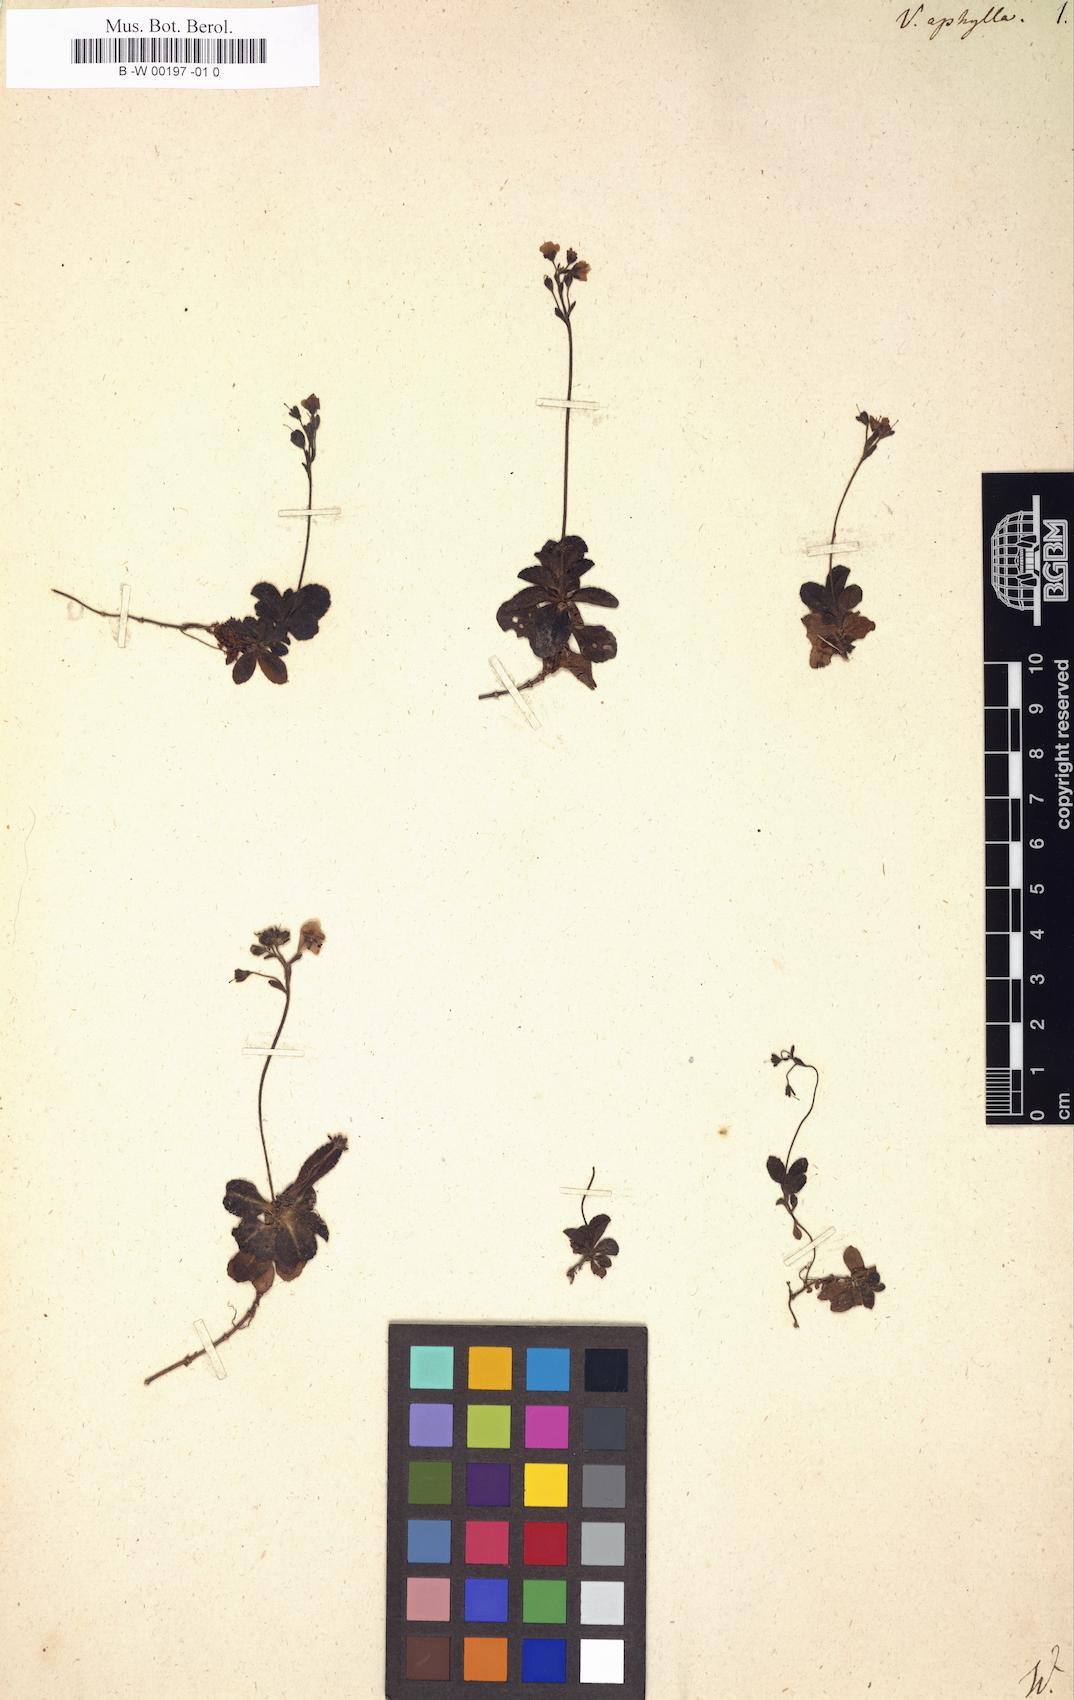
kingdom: Plantae
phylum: Tracheophyta
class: Magnoliopsida
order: Lamiales
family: Plantaginaceae
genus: Veronica
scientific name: Veronica aphylla
